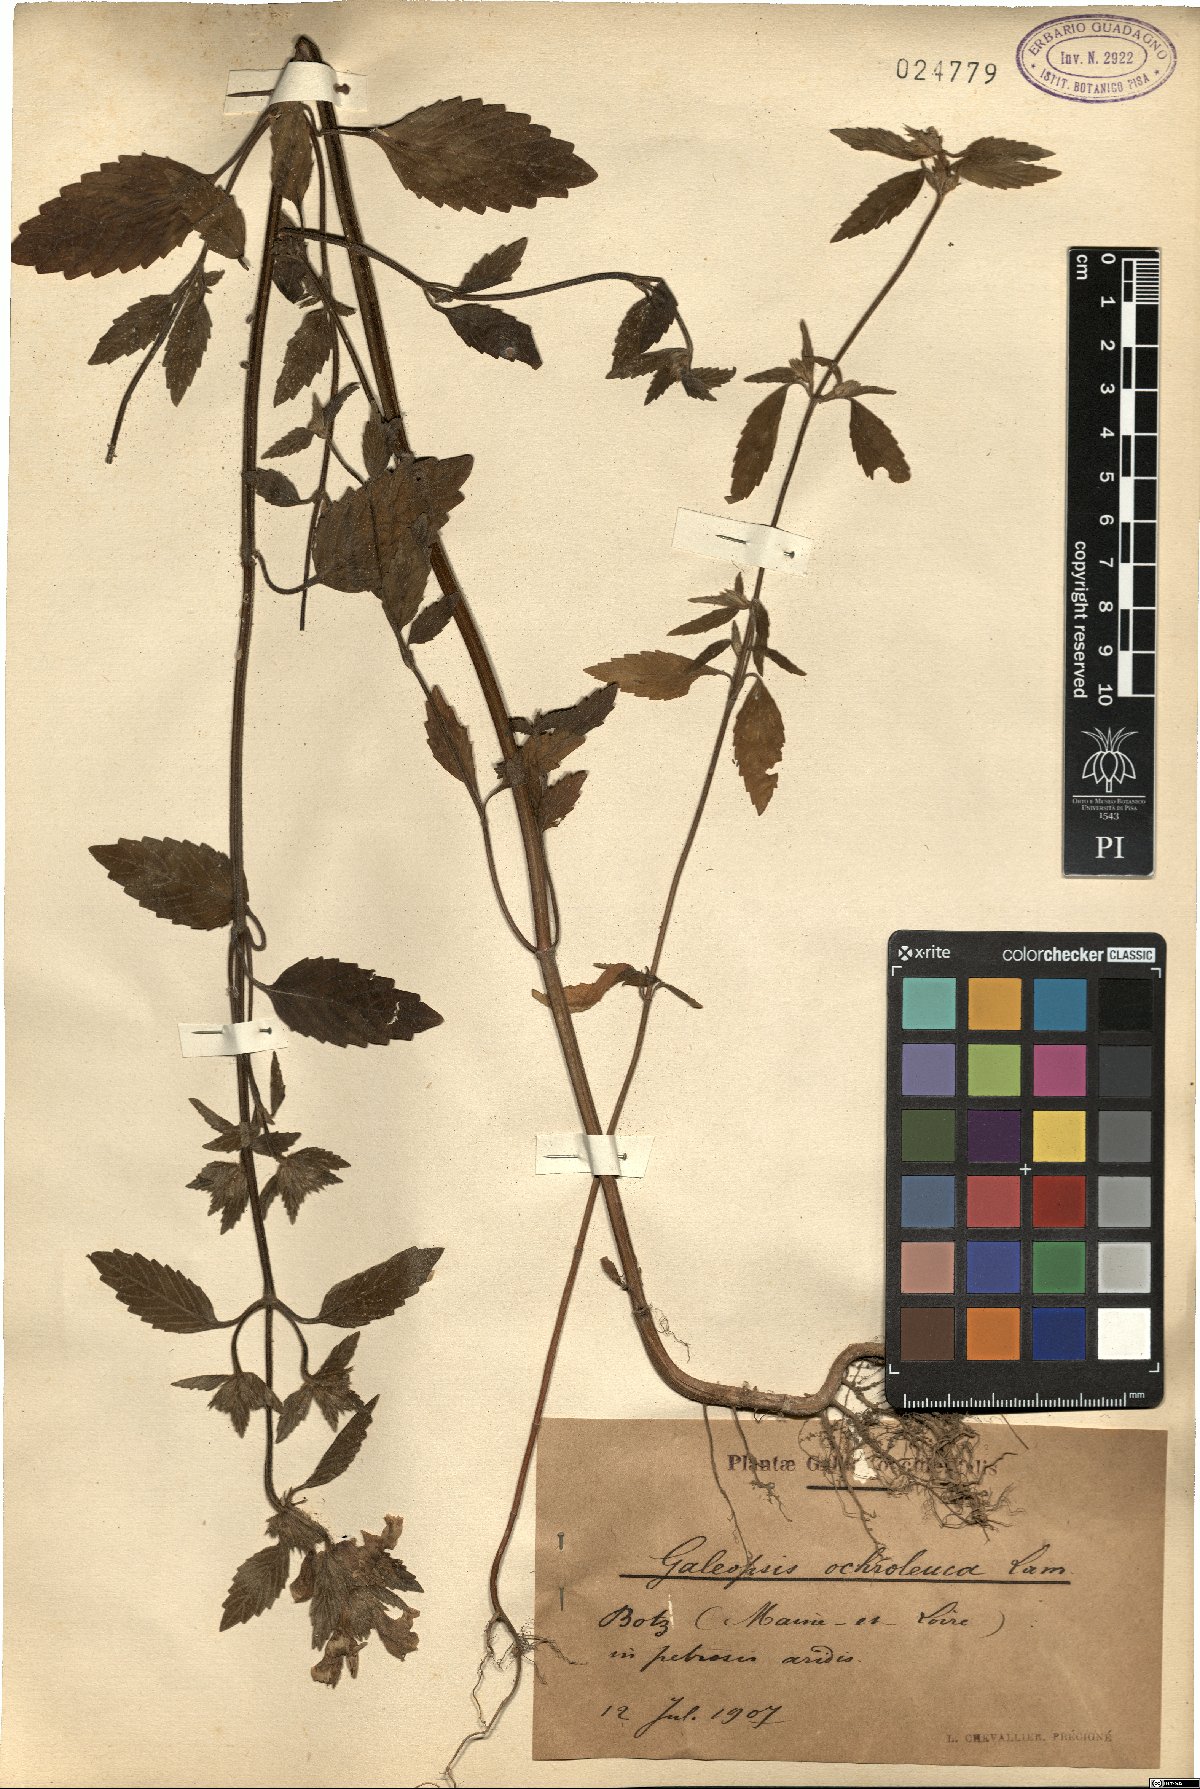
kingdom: Plantae
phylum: Tracheophyta
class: Magnoliopsida
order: Lamiales
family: Lamiaceae
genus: Galeopsis
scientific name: Galeopsis segetum
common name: Downy hemp-nettle
